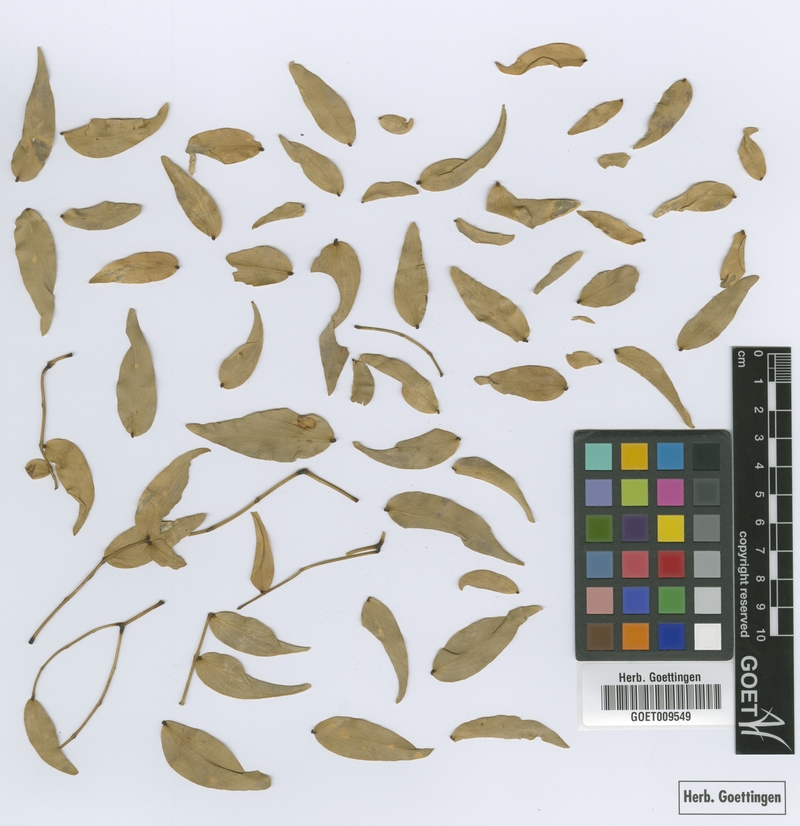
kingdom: Plantae
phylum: Tracheophyta
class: Magnoliopsida
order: Fabales
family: Fabaceae
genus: Prosopis
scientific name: Prosopis ruscifolia
